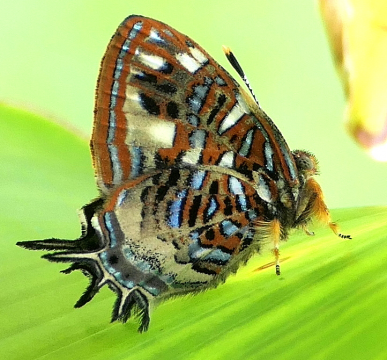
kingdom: Animalia
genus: Charis
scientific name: Charis Sarota chrysus
